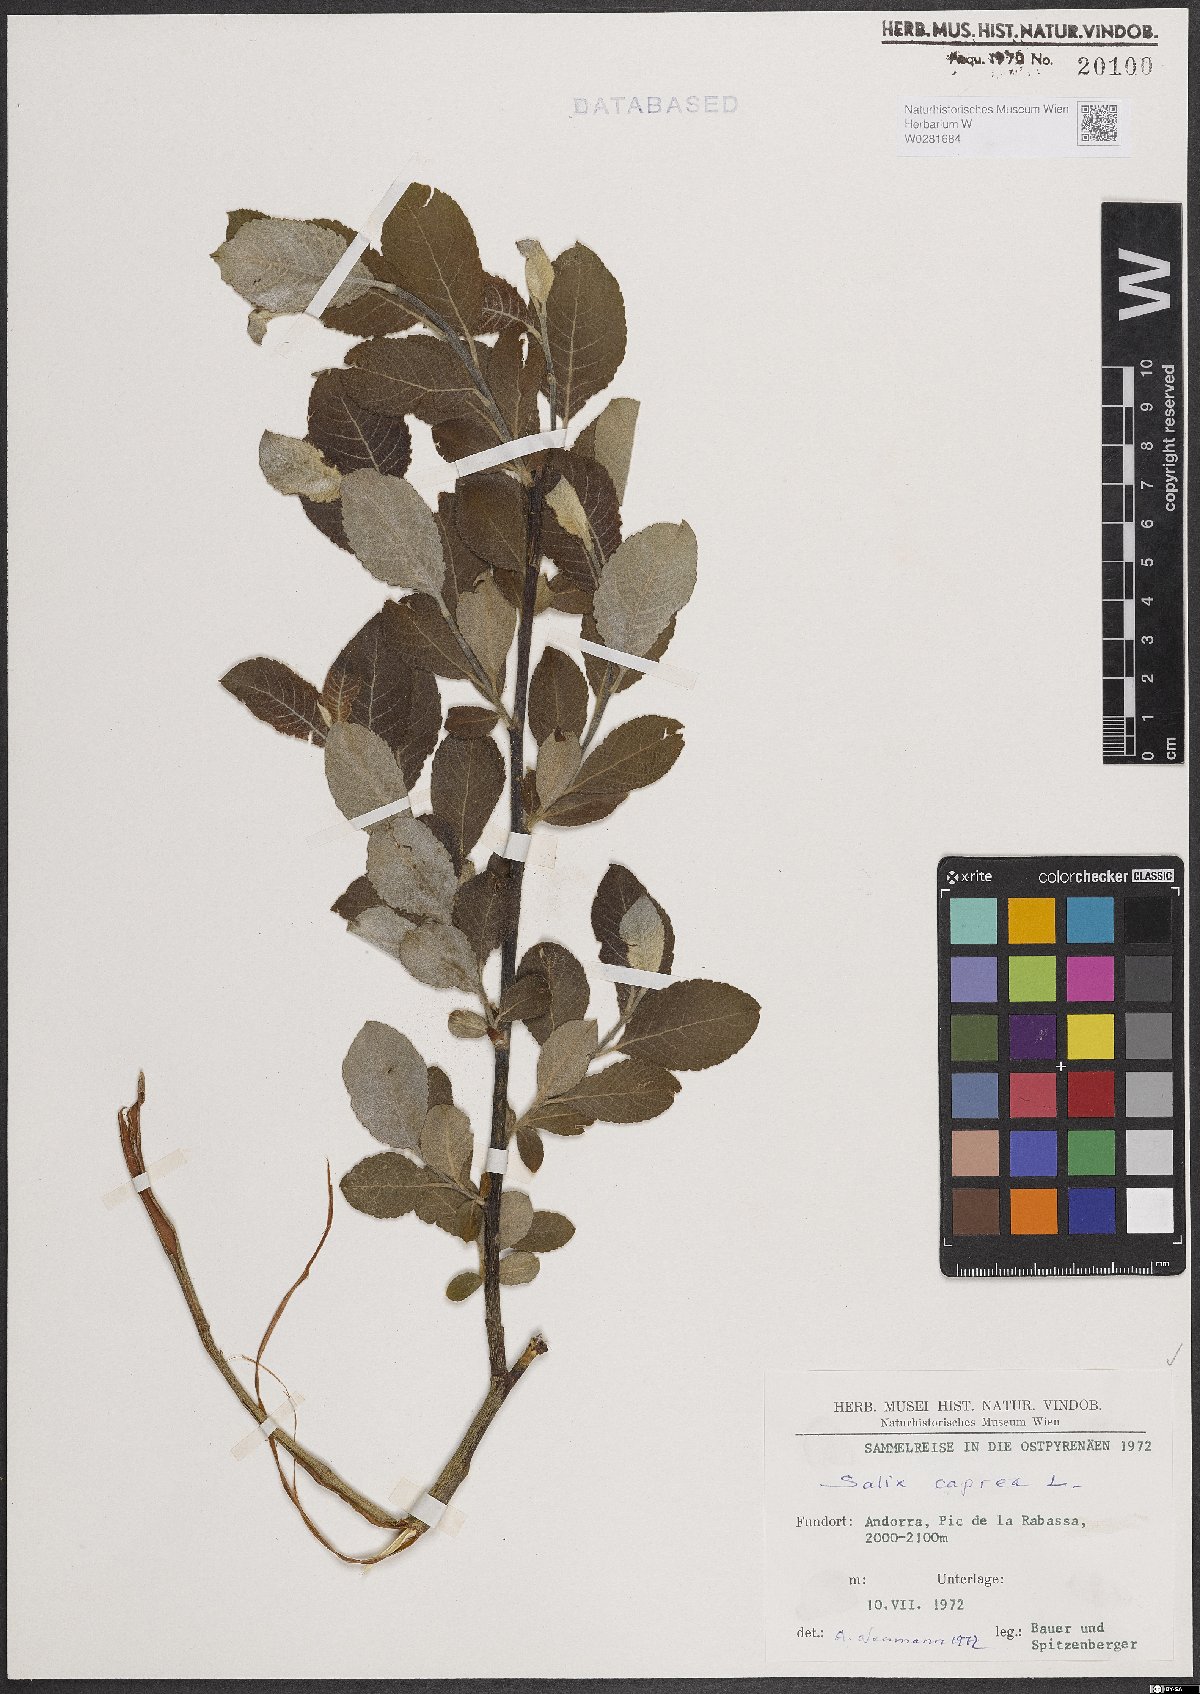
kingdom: Plantae
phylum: Tracheophyta
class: Magnoliopsida
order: Malpighiales
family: Salicaceae
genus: Salix
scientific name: Salix caprea
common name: Goat willow
